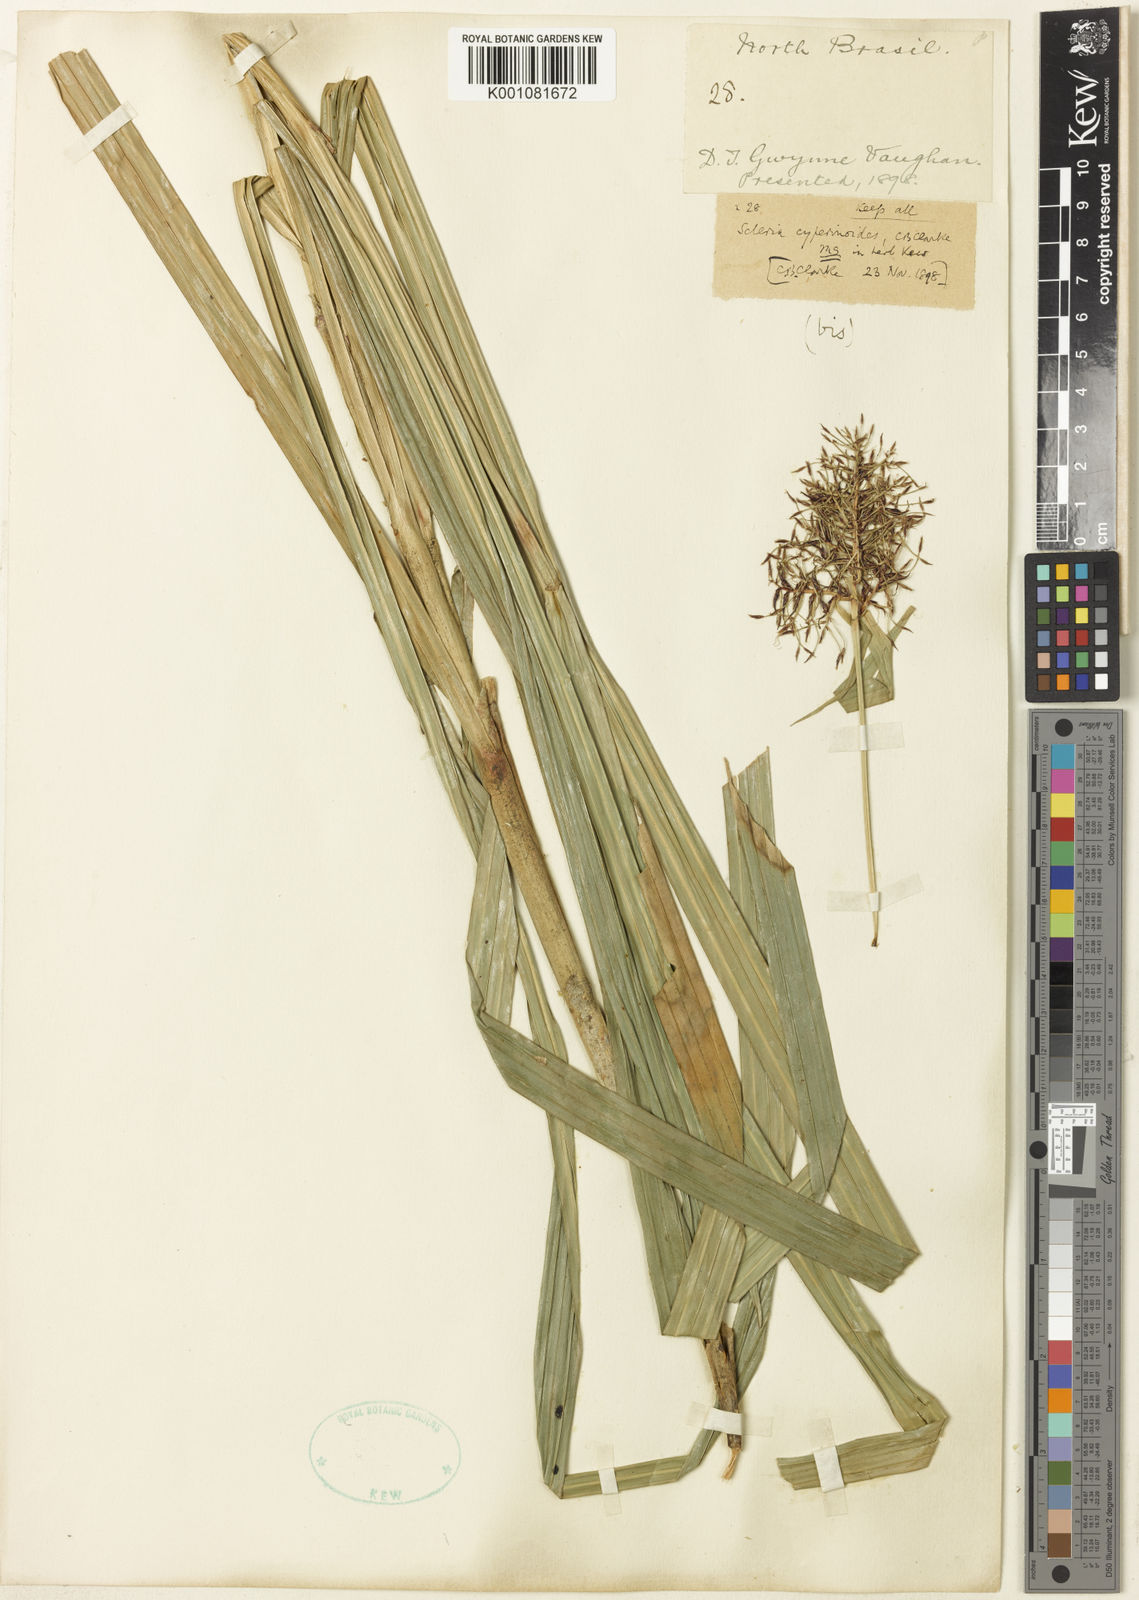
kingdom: Plantae
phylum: Tracheophyta
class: Liliopsida
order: Poales
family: Cyperaceae
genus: Scleria
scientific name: Scleria martii
